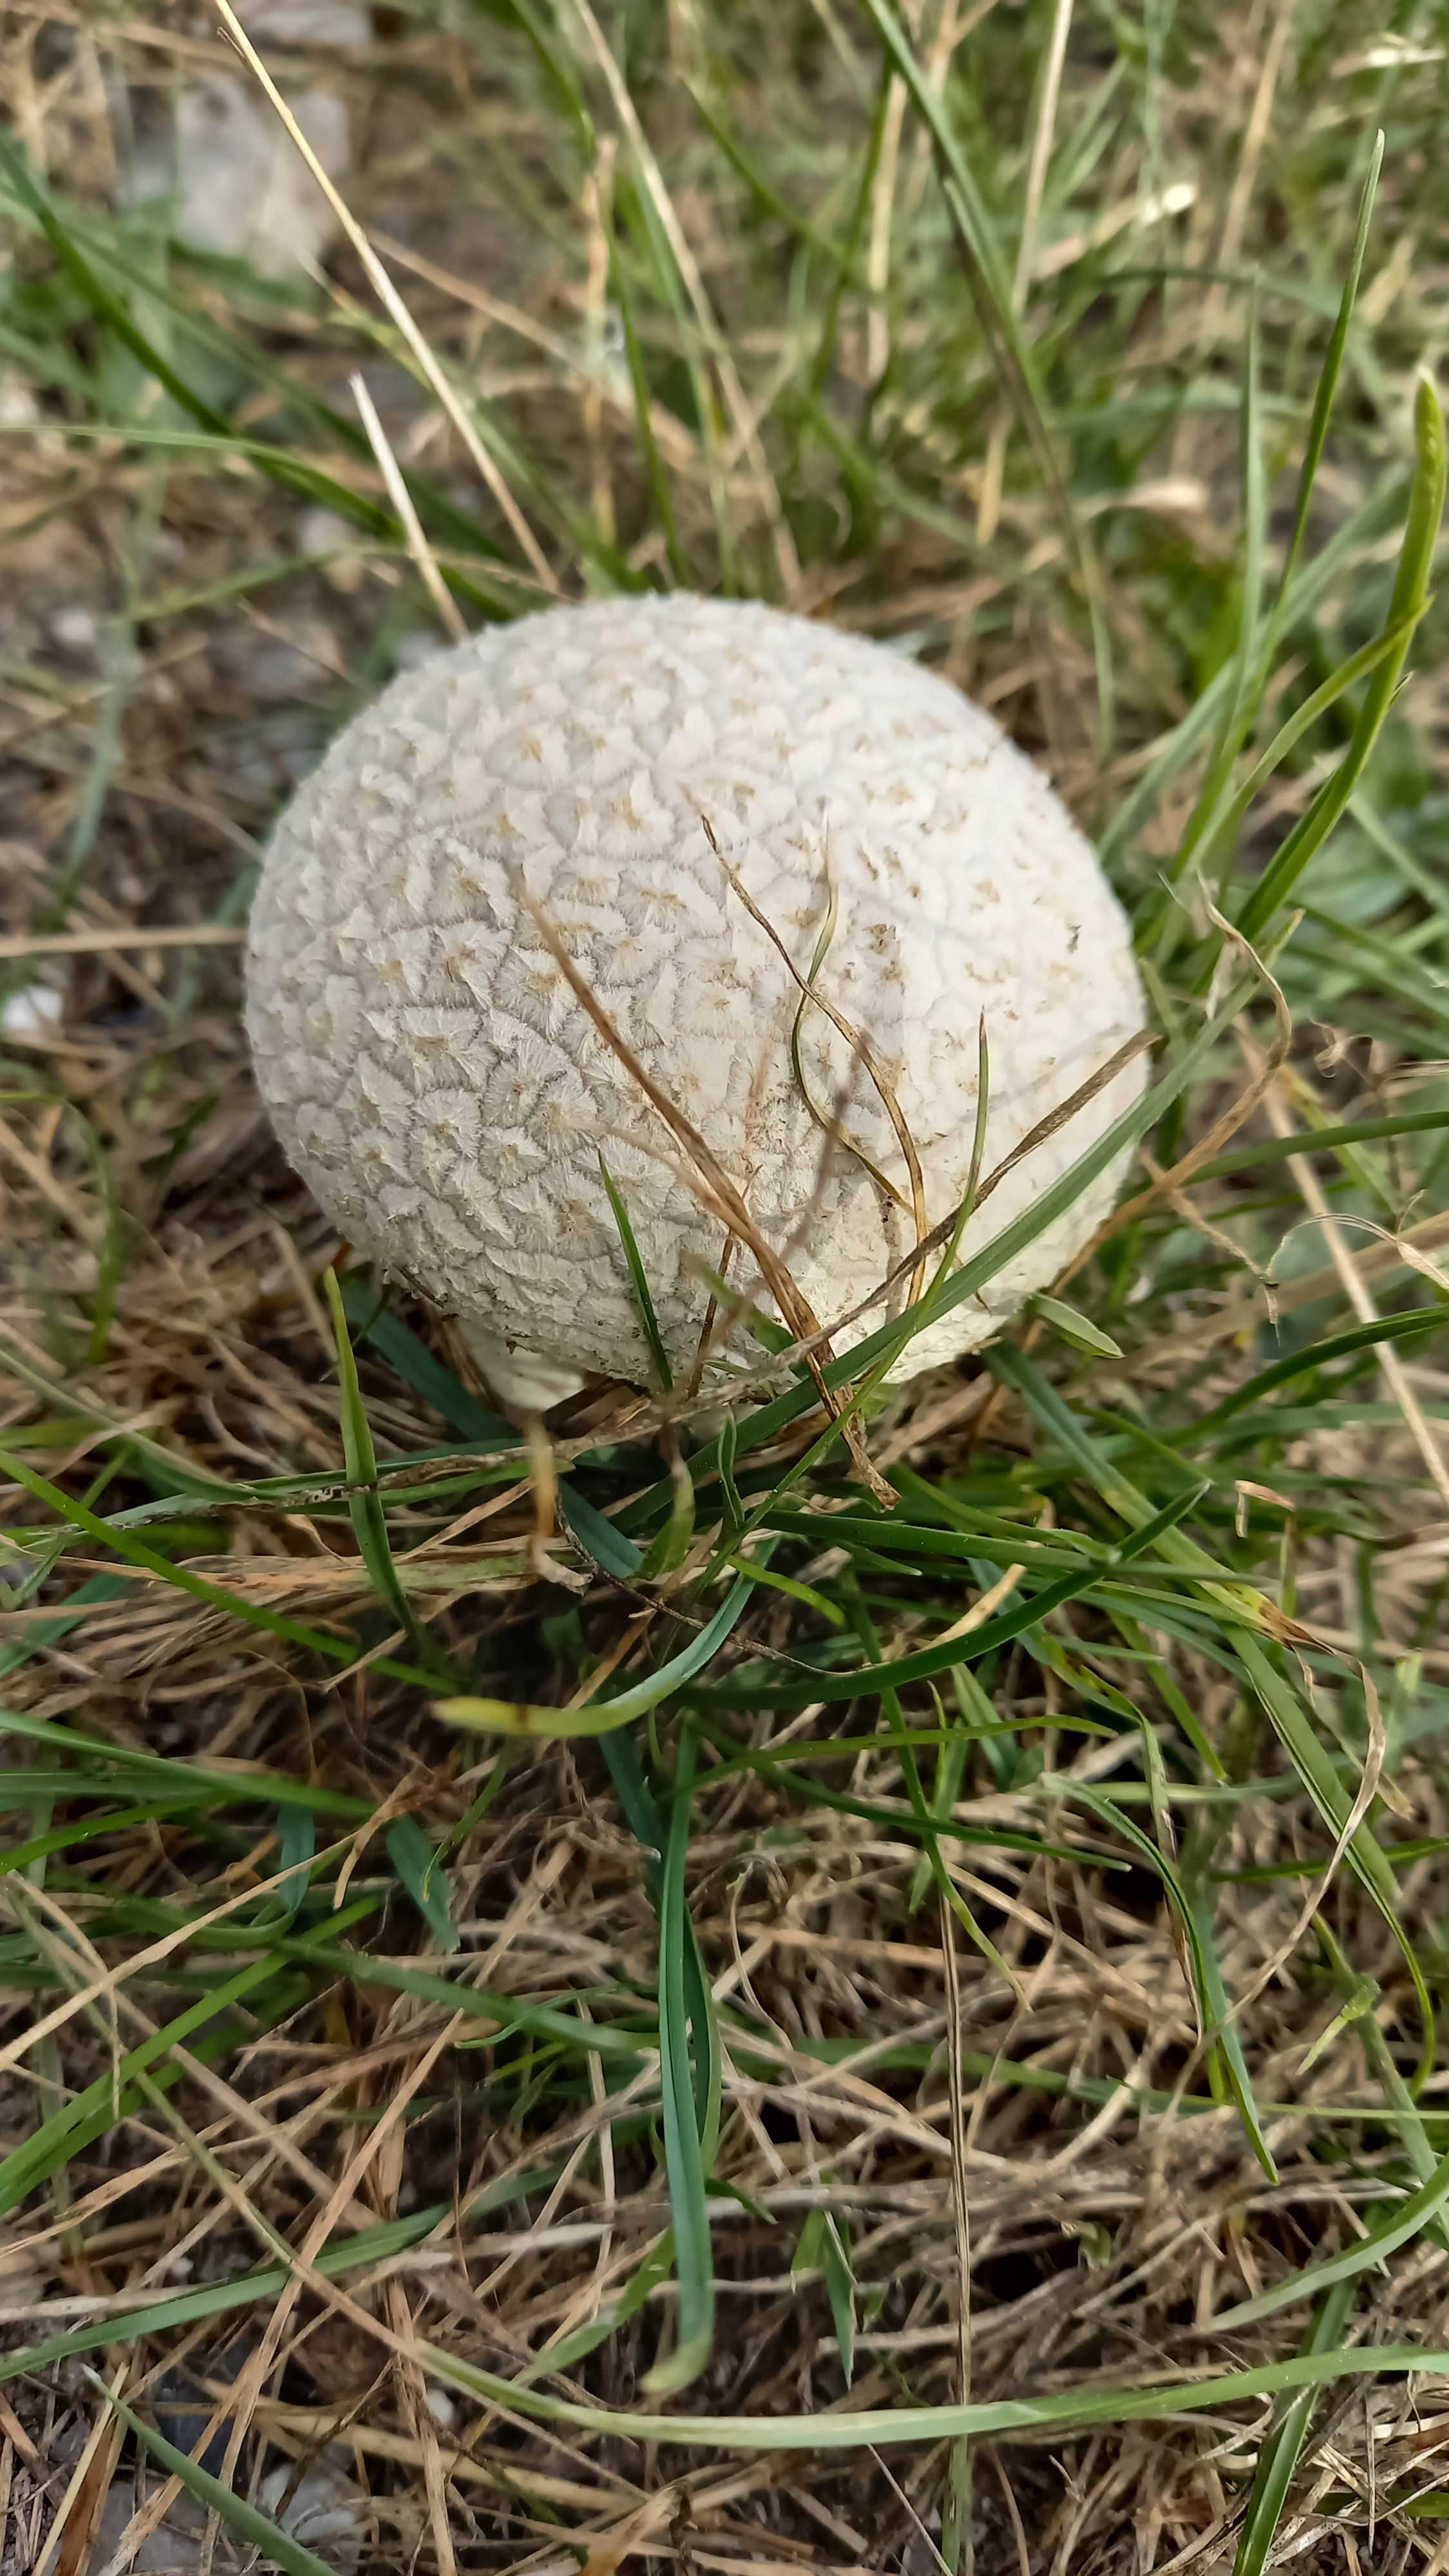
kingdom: Fungi
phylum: Basidiomycota
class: Agaricomycetes
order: Agaricales
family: Lycoperdaceae
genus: Bovistella
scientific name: Bovistella utriformis
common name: skællet støvbold
